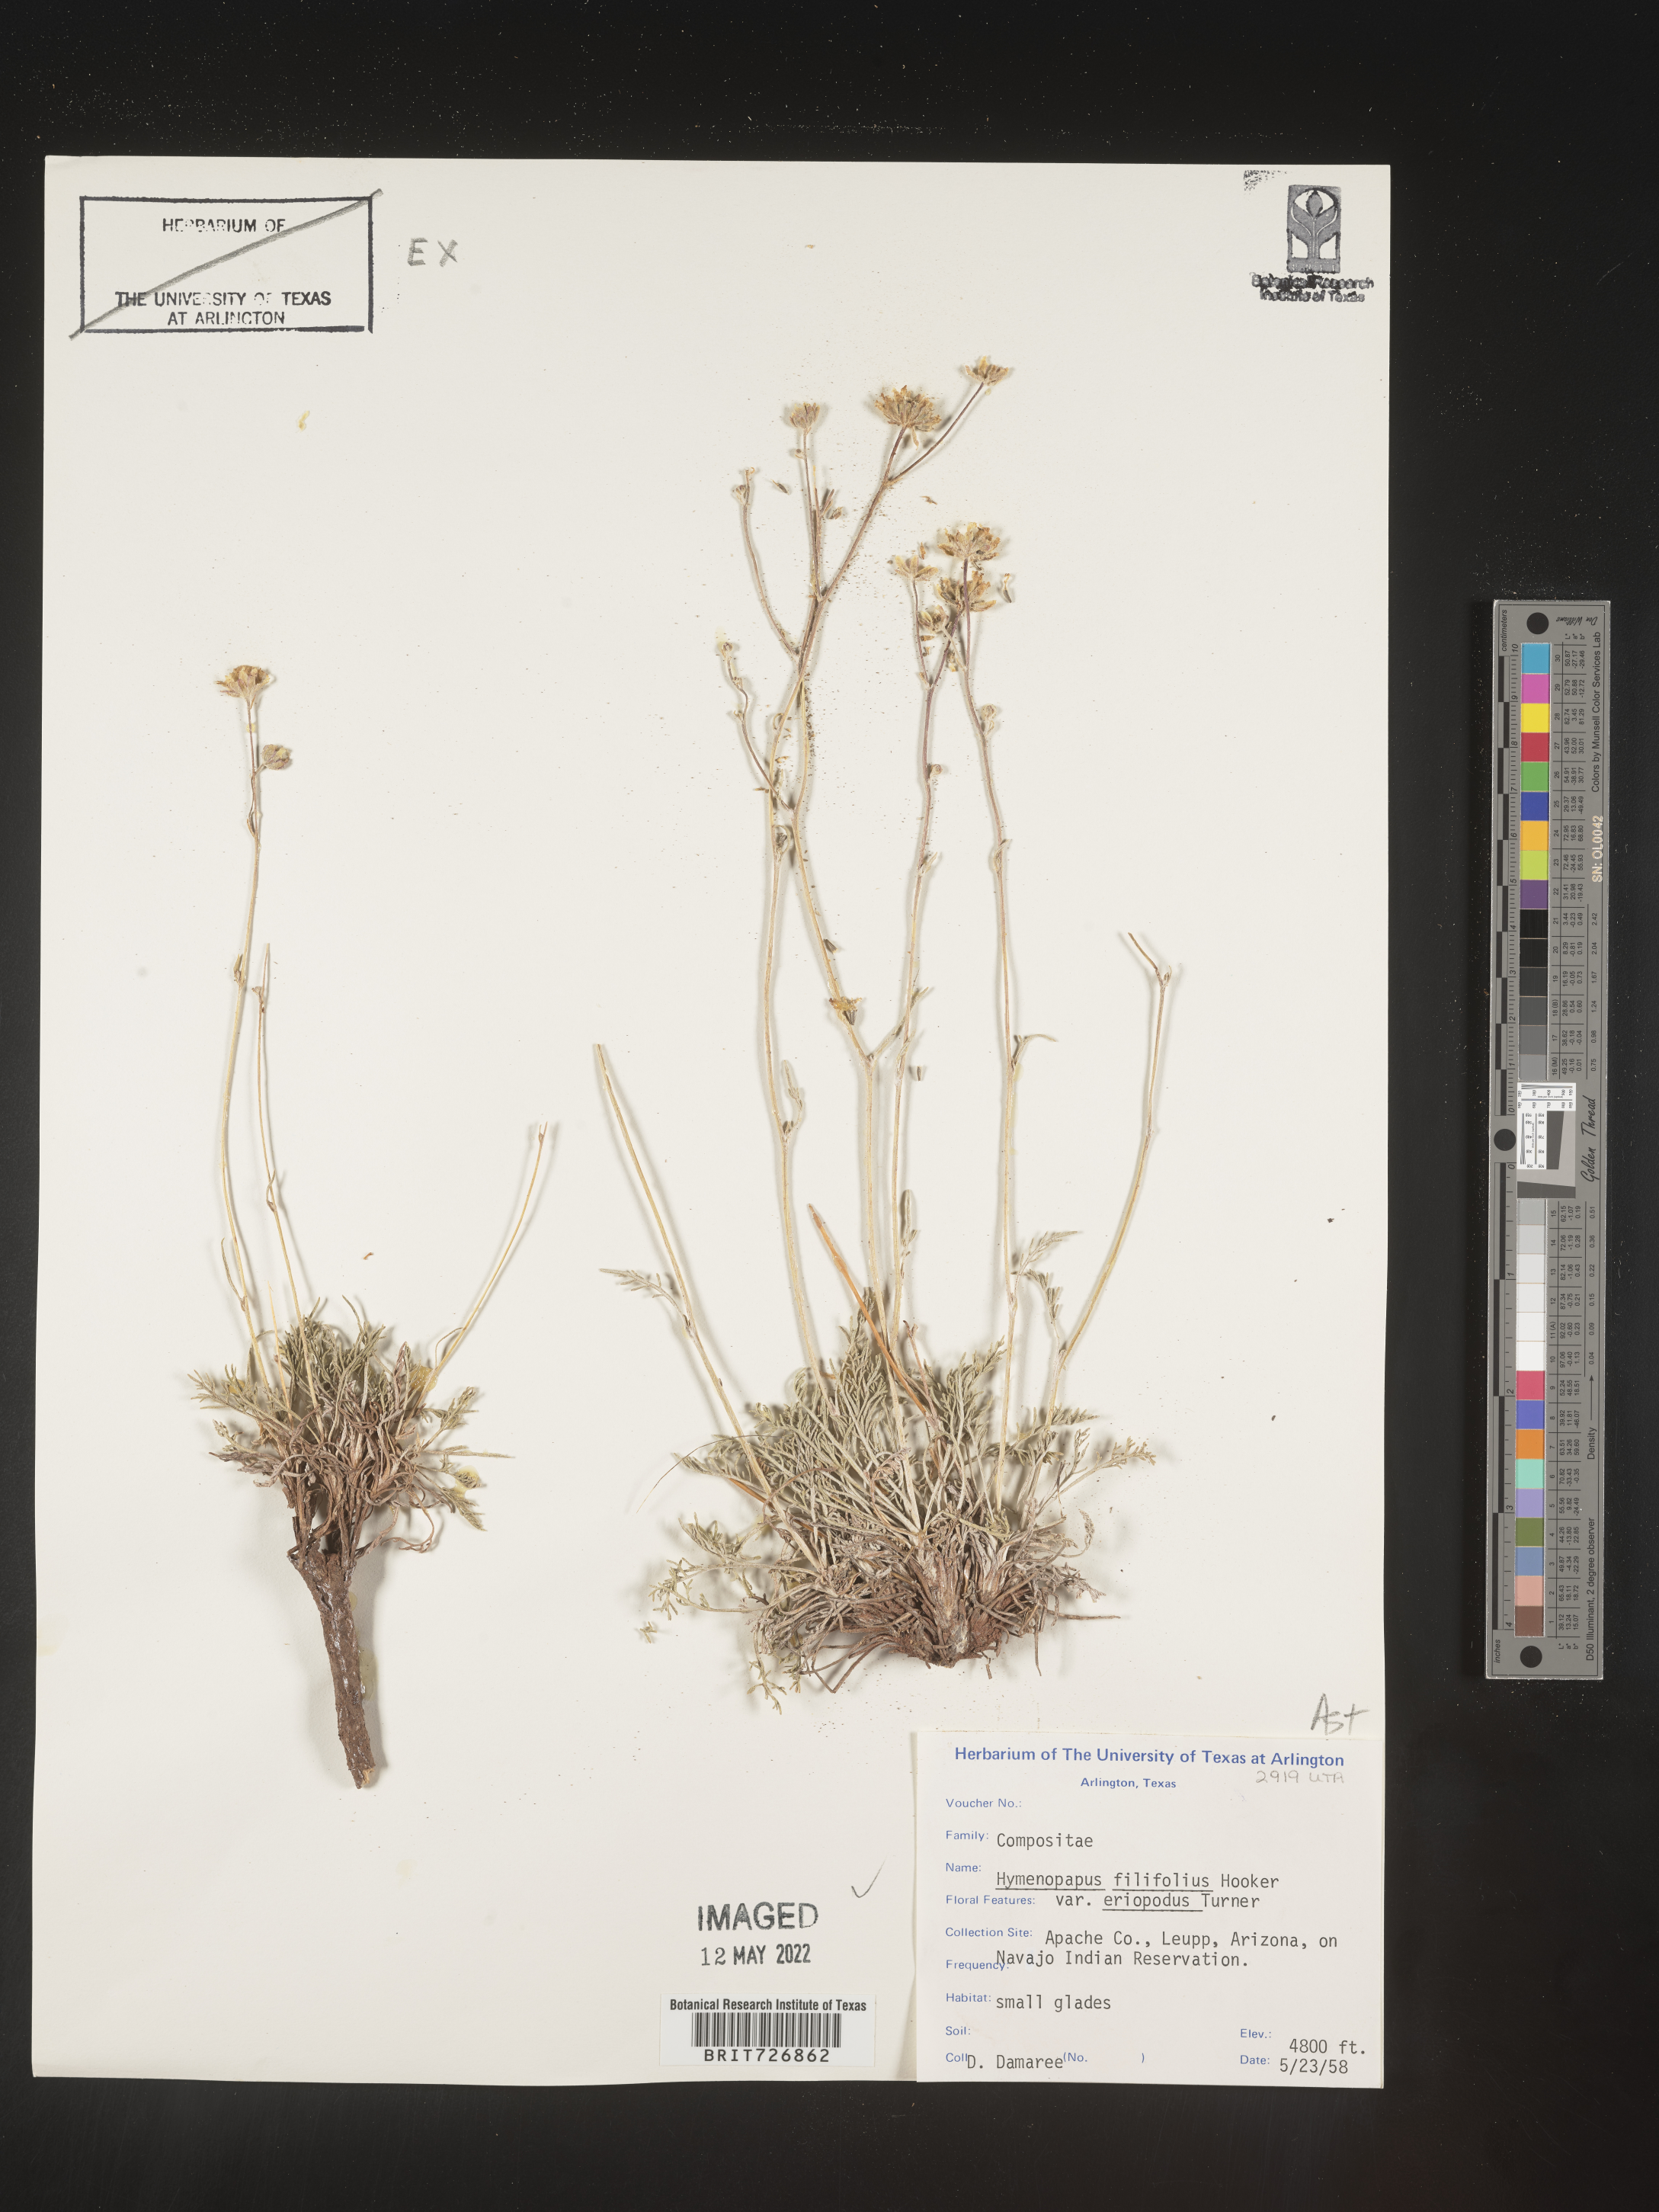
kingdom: Plantae
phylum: Tracheophyta
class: Magnoliopsida
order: Asterales
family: Asteraceae
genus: Hymenopappus
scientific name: Hymenopappus filifolius
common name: Columbia cutleaf
